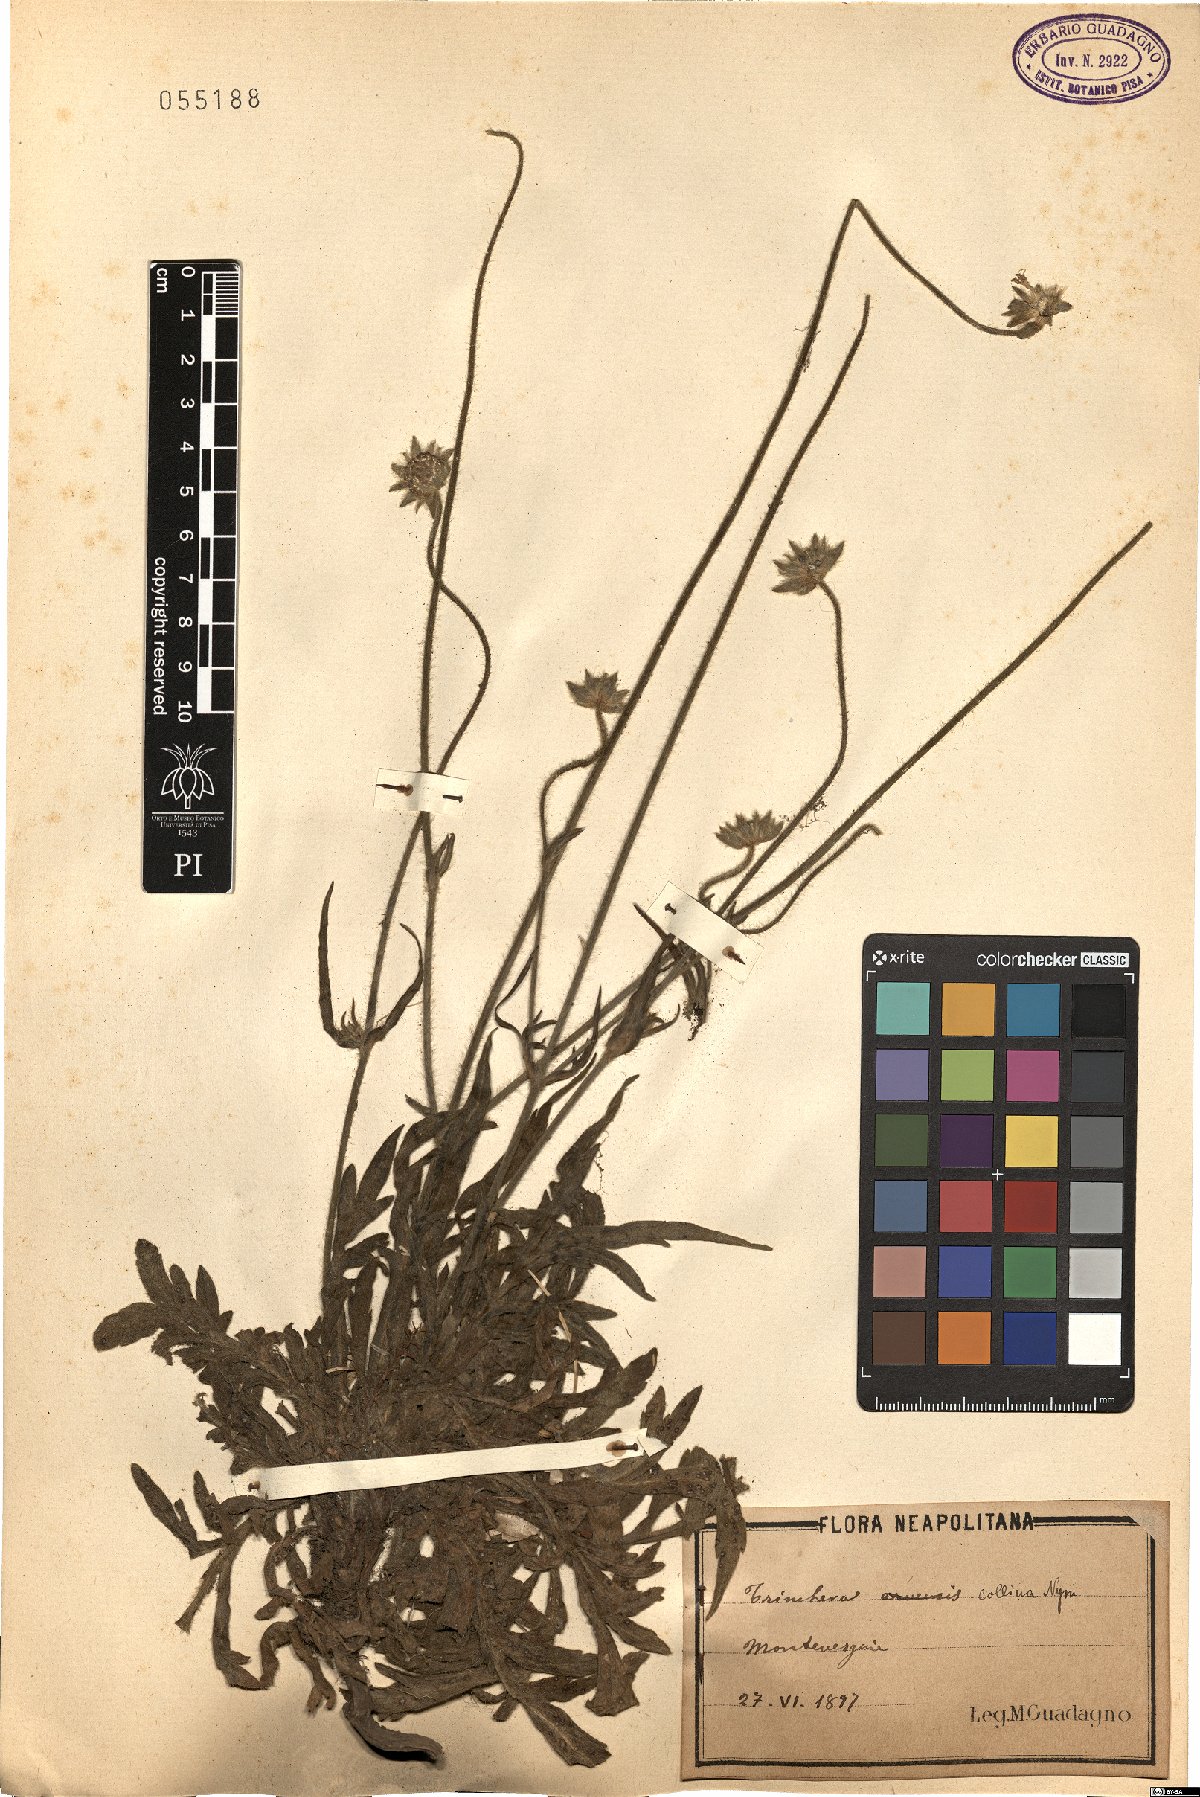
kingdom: Plantae
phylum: Tracheophyta
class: Magnoliopsida
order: Dipsacales
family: Caprifoliaceae
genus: Knautia
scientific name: Knautia collina
